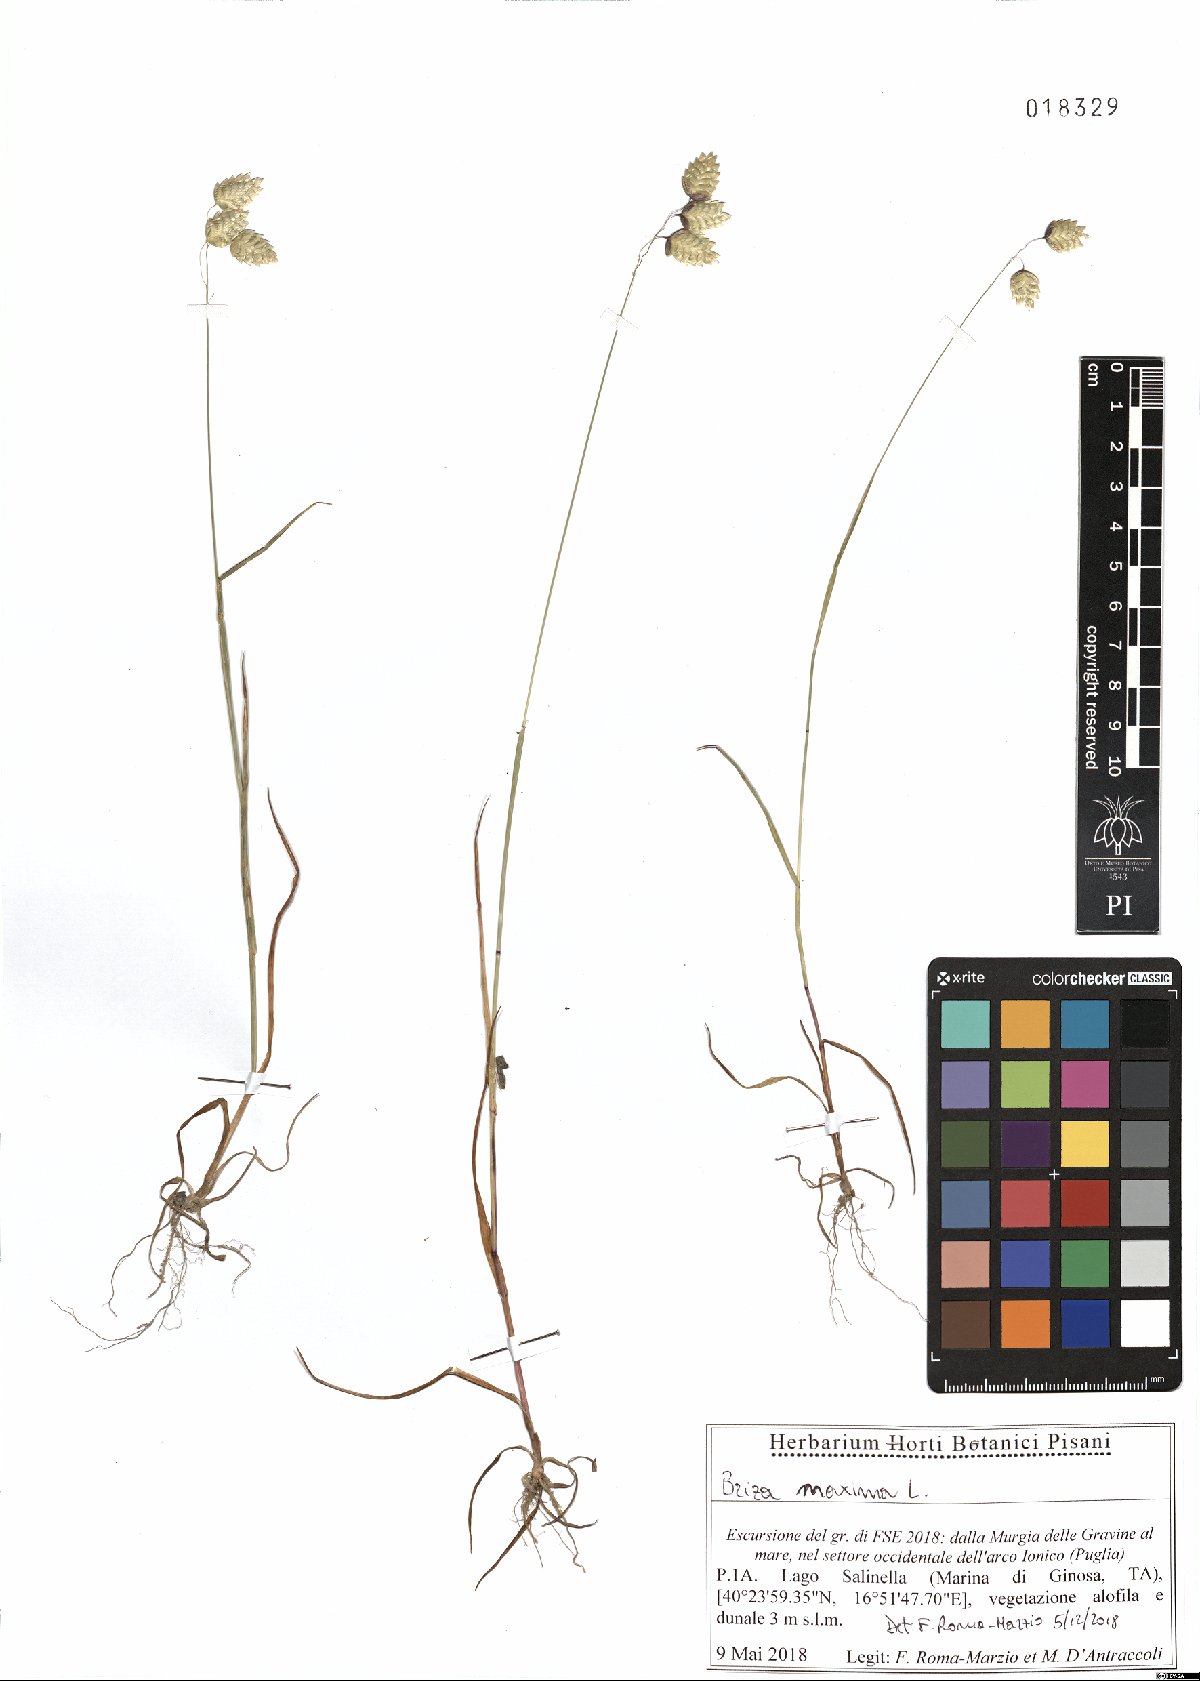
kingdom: Plantae
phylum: Tracheophyta
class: Liliopsida
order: Poales
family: Poaceae
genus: Briza
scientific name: Briza maxima
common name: Big quakinggrass
